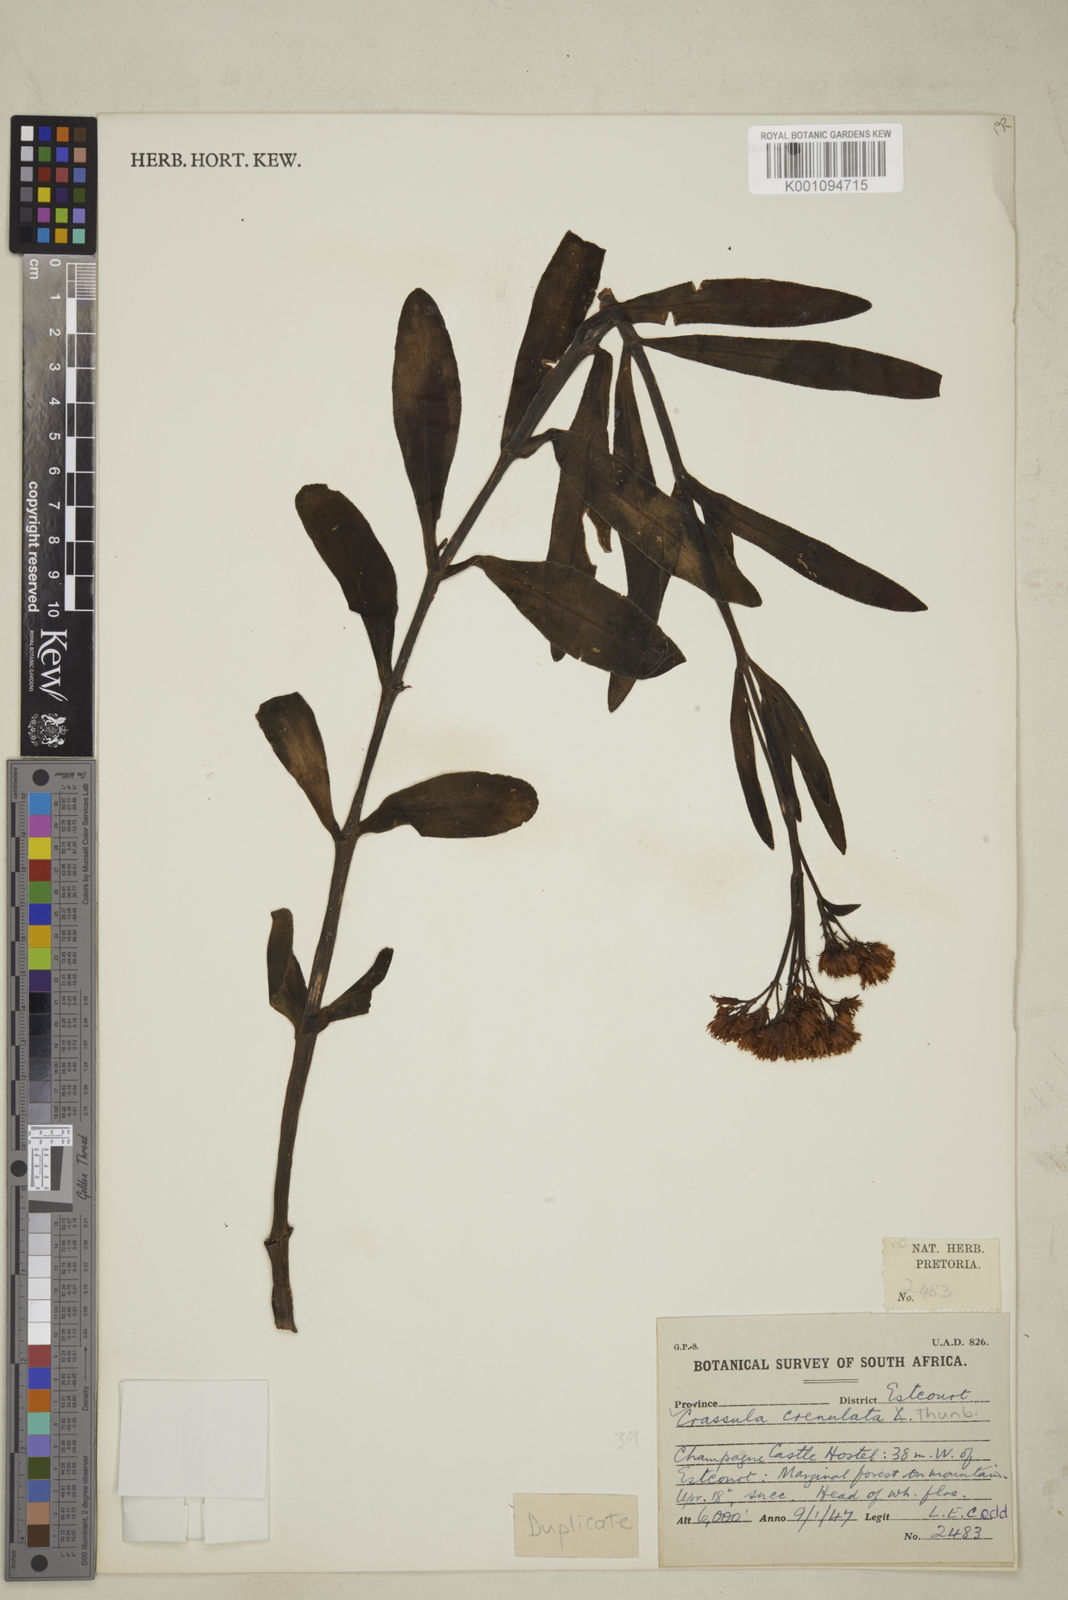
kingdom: Plantae
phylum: Tracheophyta
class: Magnoliopsida
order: Saxifragales
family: Crassulaceae
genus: Crassula
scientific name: Crassula crenulata
